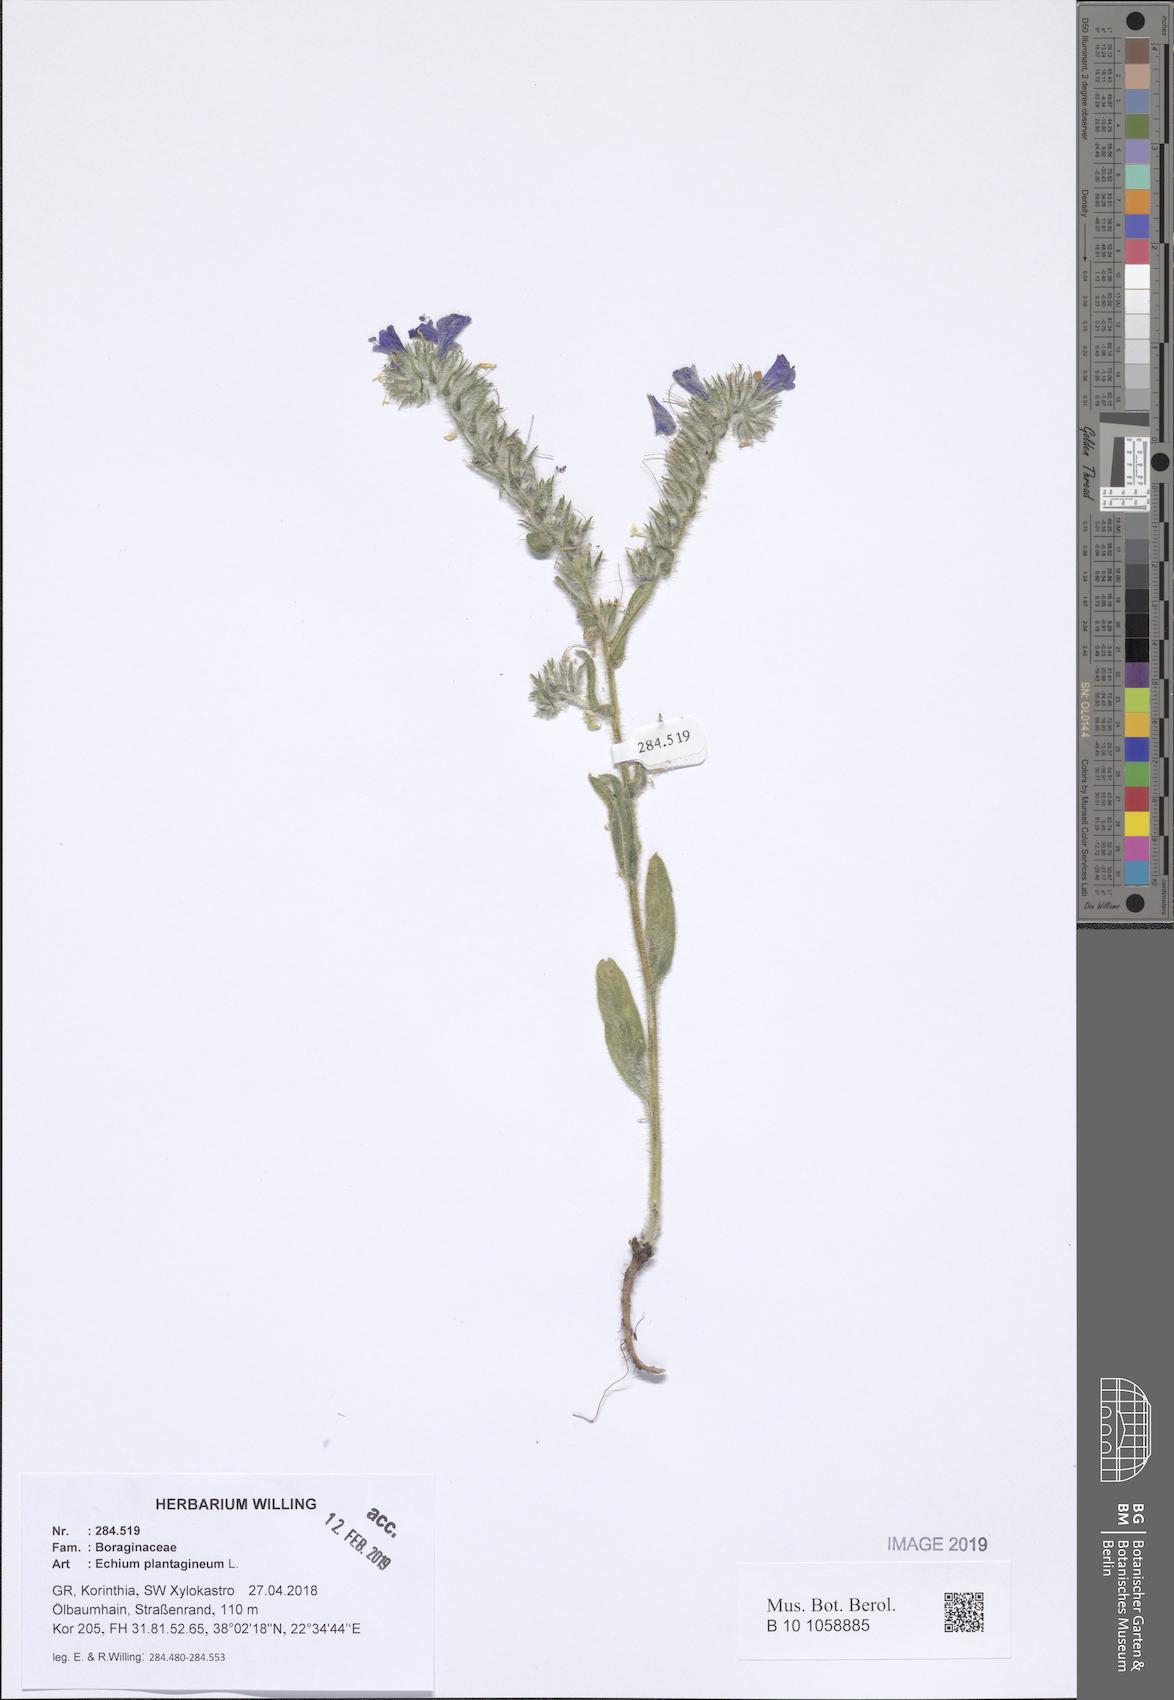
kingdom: Plantae
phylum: Tracheophyta
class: Magnoliopsida
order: Boraginales
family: Boraginaceae
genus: Echium
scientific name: Echium plantagineum
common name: Purple viper's-bugloss
